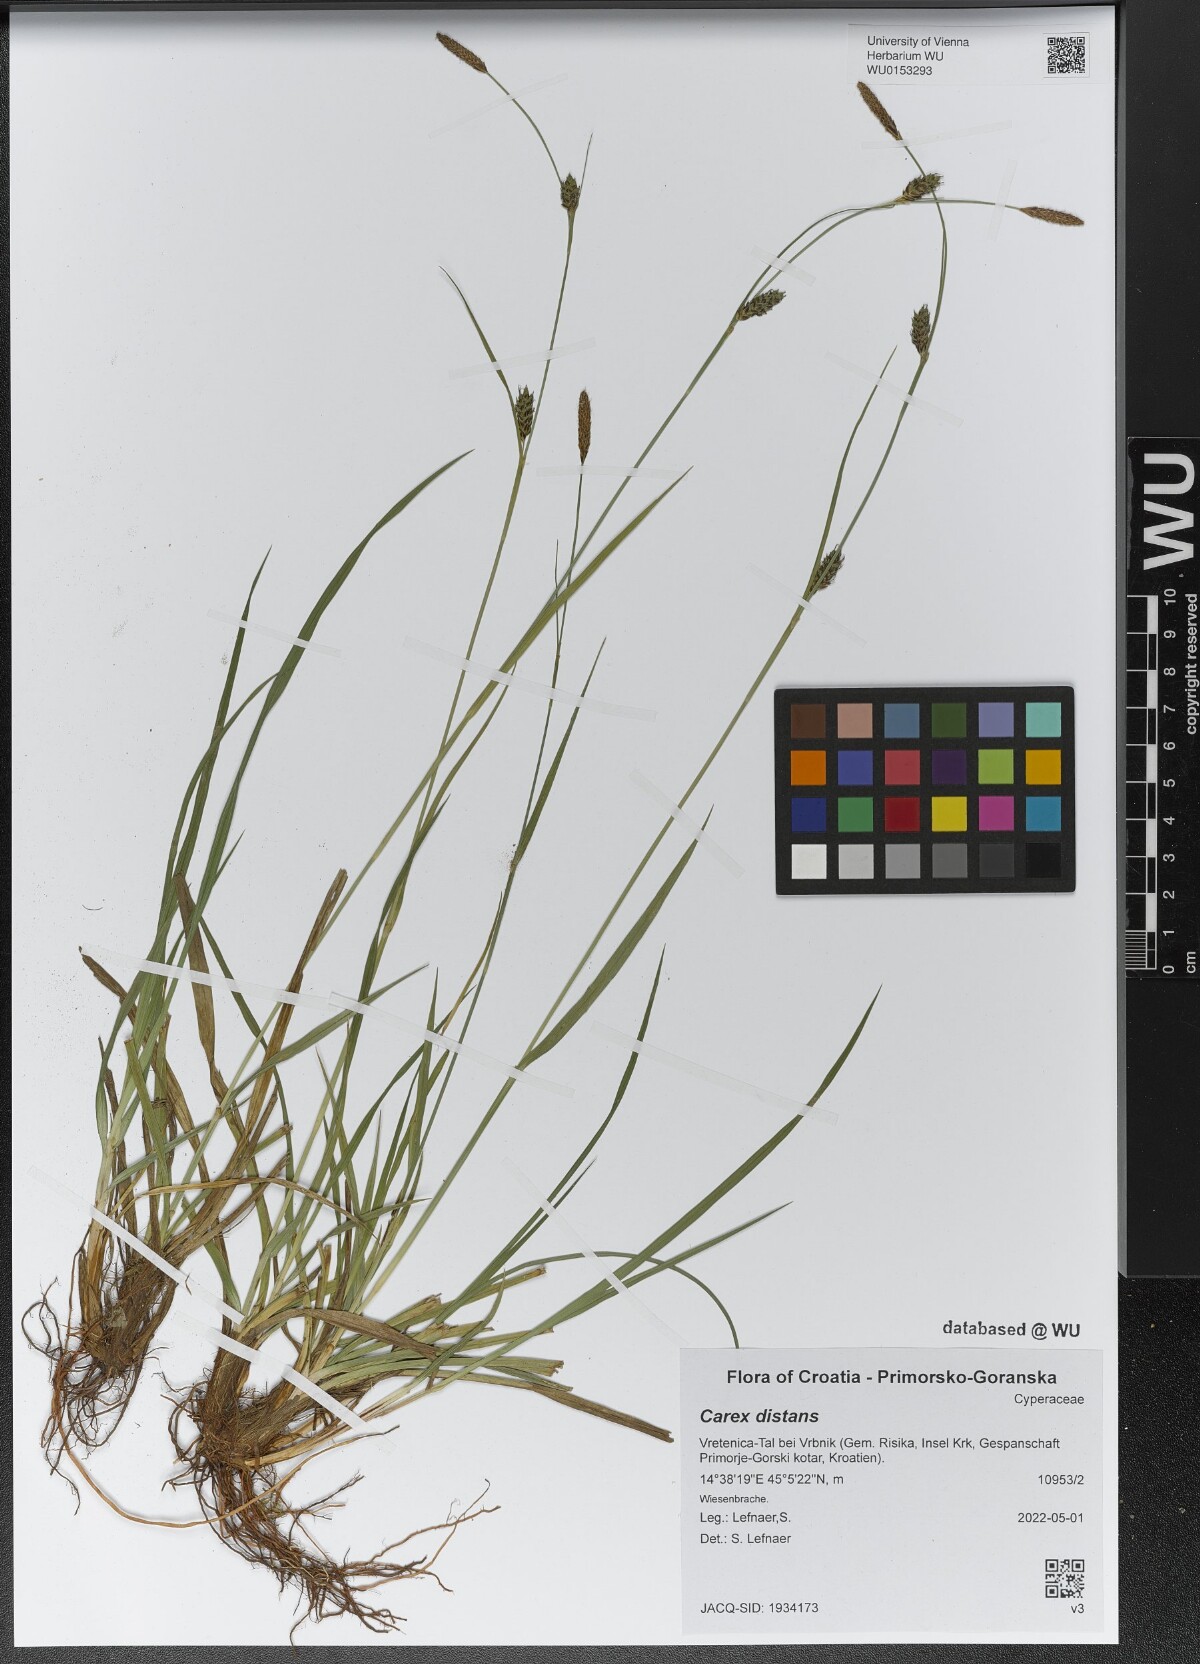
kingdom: Plantae
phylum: Tracheophyta
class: Liliopsida
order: Poales
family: Cyperaceae
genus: Carex
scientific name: Carex distans
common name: Distant sedge
